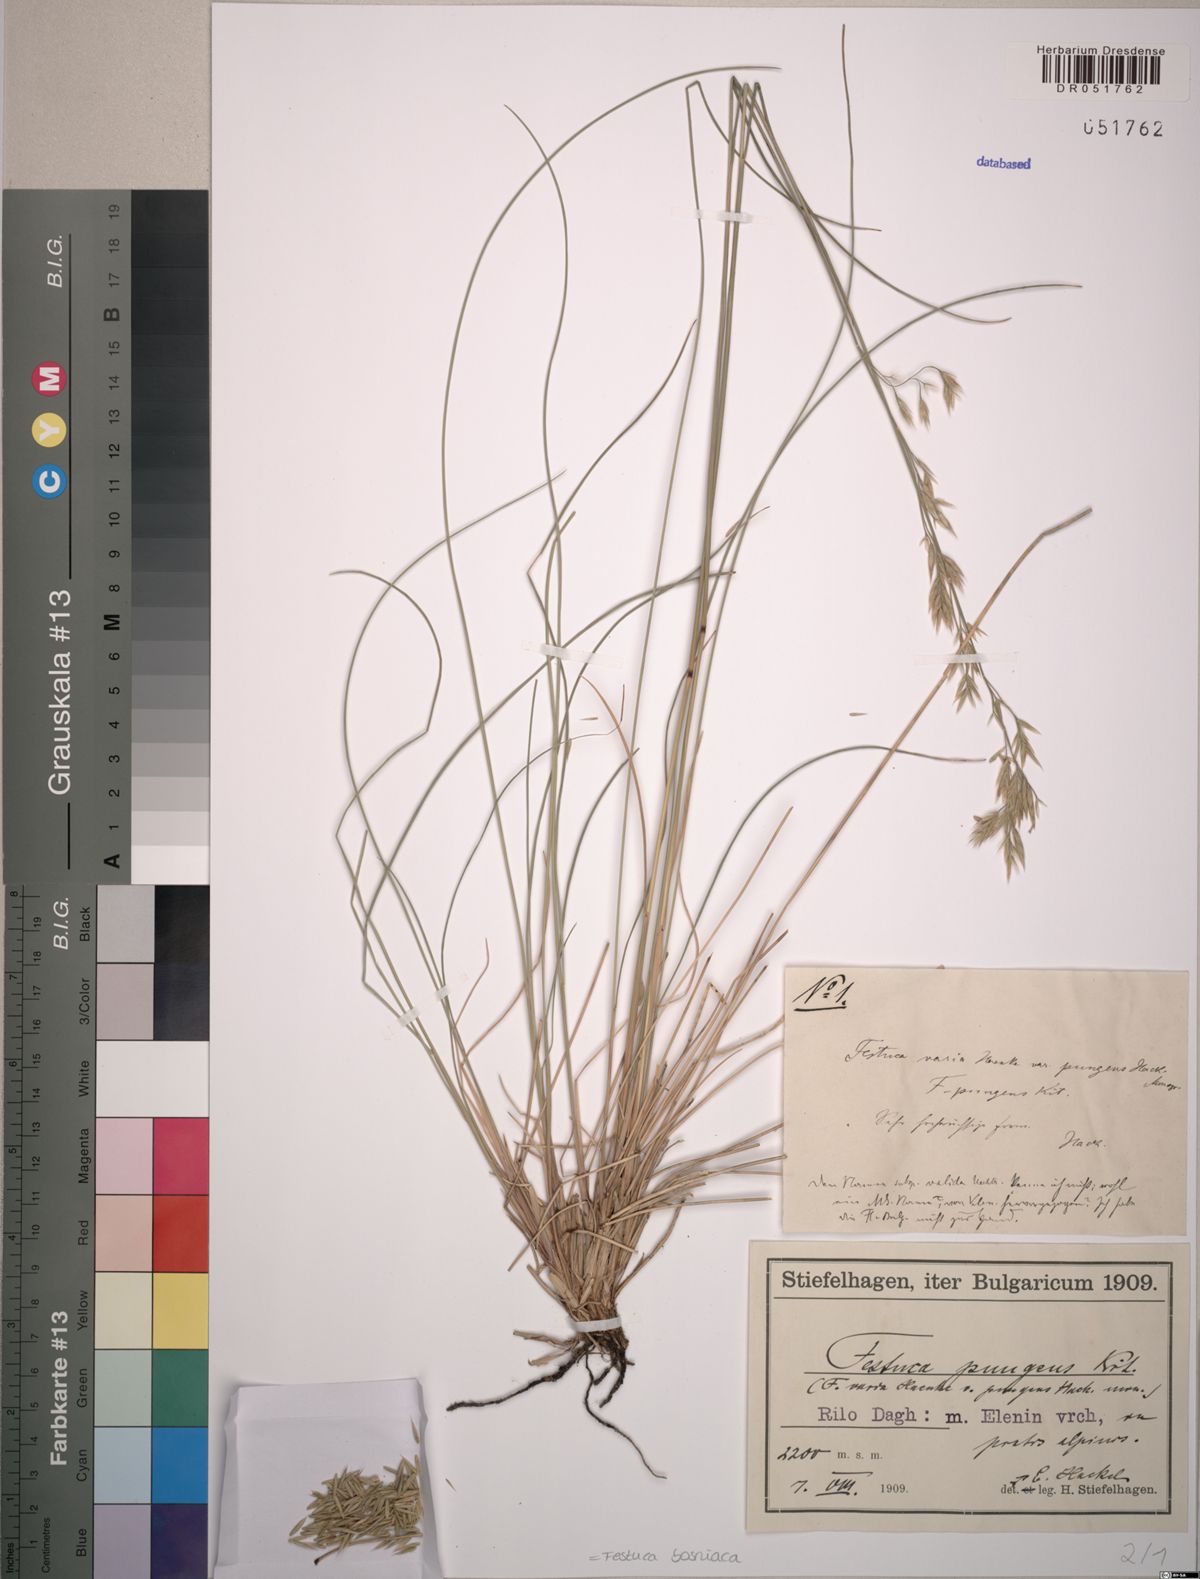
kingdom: Plantae
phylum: Tracheophyta
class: Liliopsida
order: Poales
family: Poaceae
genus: Festuca
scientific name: Festuca bosniaca
